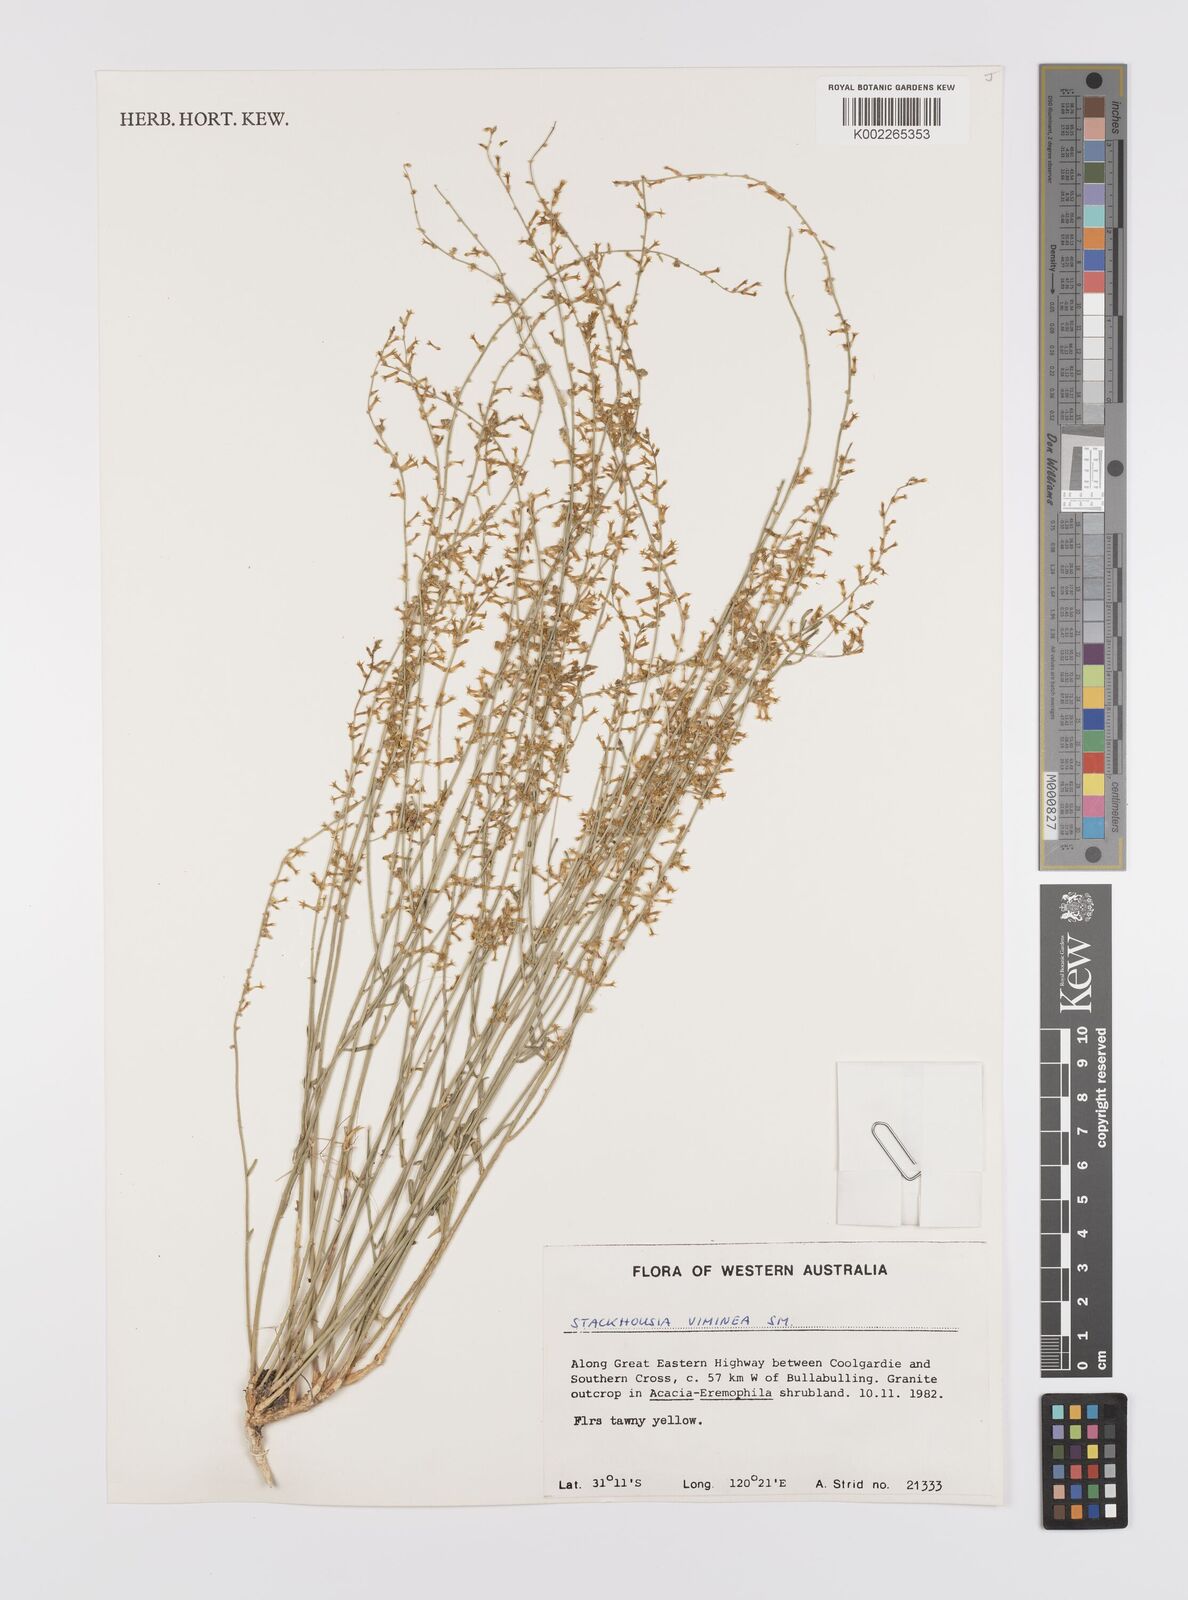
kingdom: Plantae
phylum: Tracheophyta
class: Magnoliopsida
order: Celastrales
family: Celastraceae
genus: Stackhousia
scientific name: Stackhousia muricata
